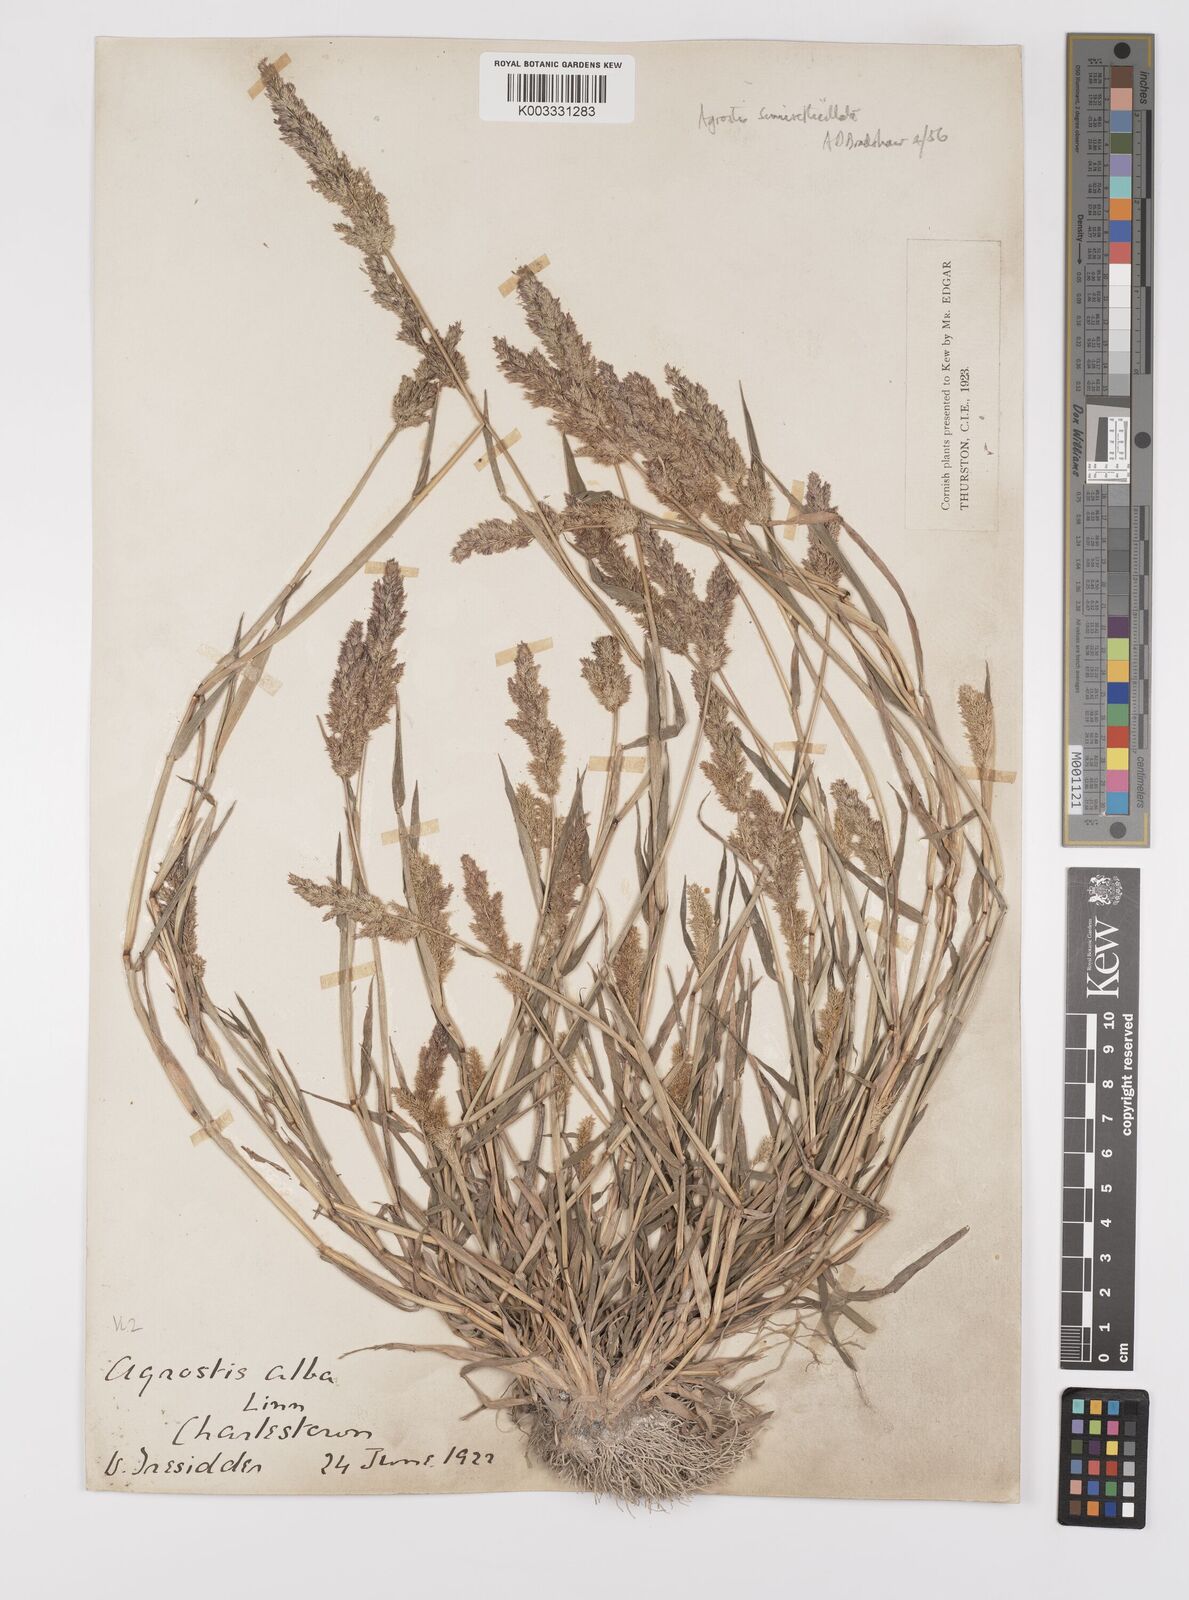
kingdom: Plantae
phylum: Tracheophyta
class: Liliopsida
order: Poales
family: Poaceae
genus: Polypogon
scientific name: Polypogon viridis
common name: Water bent
